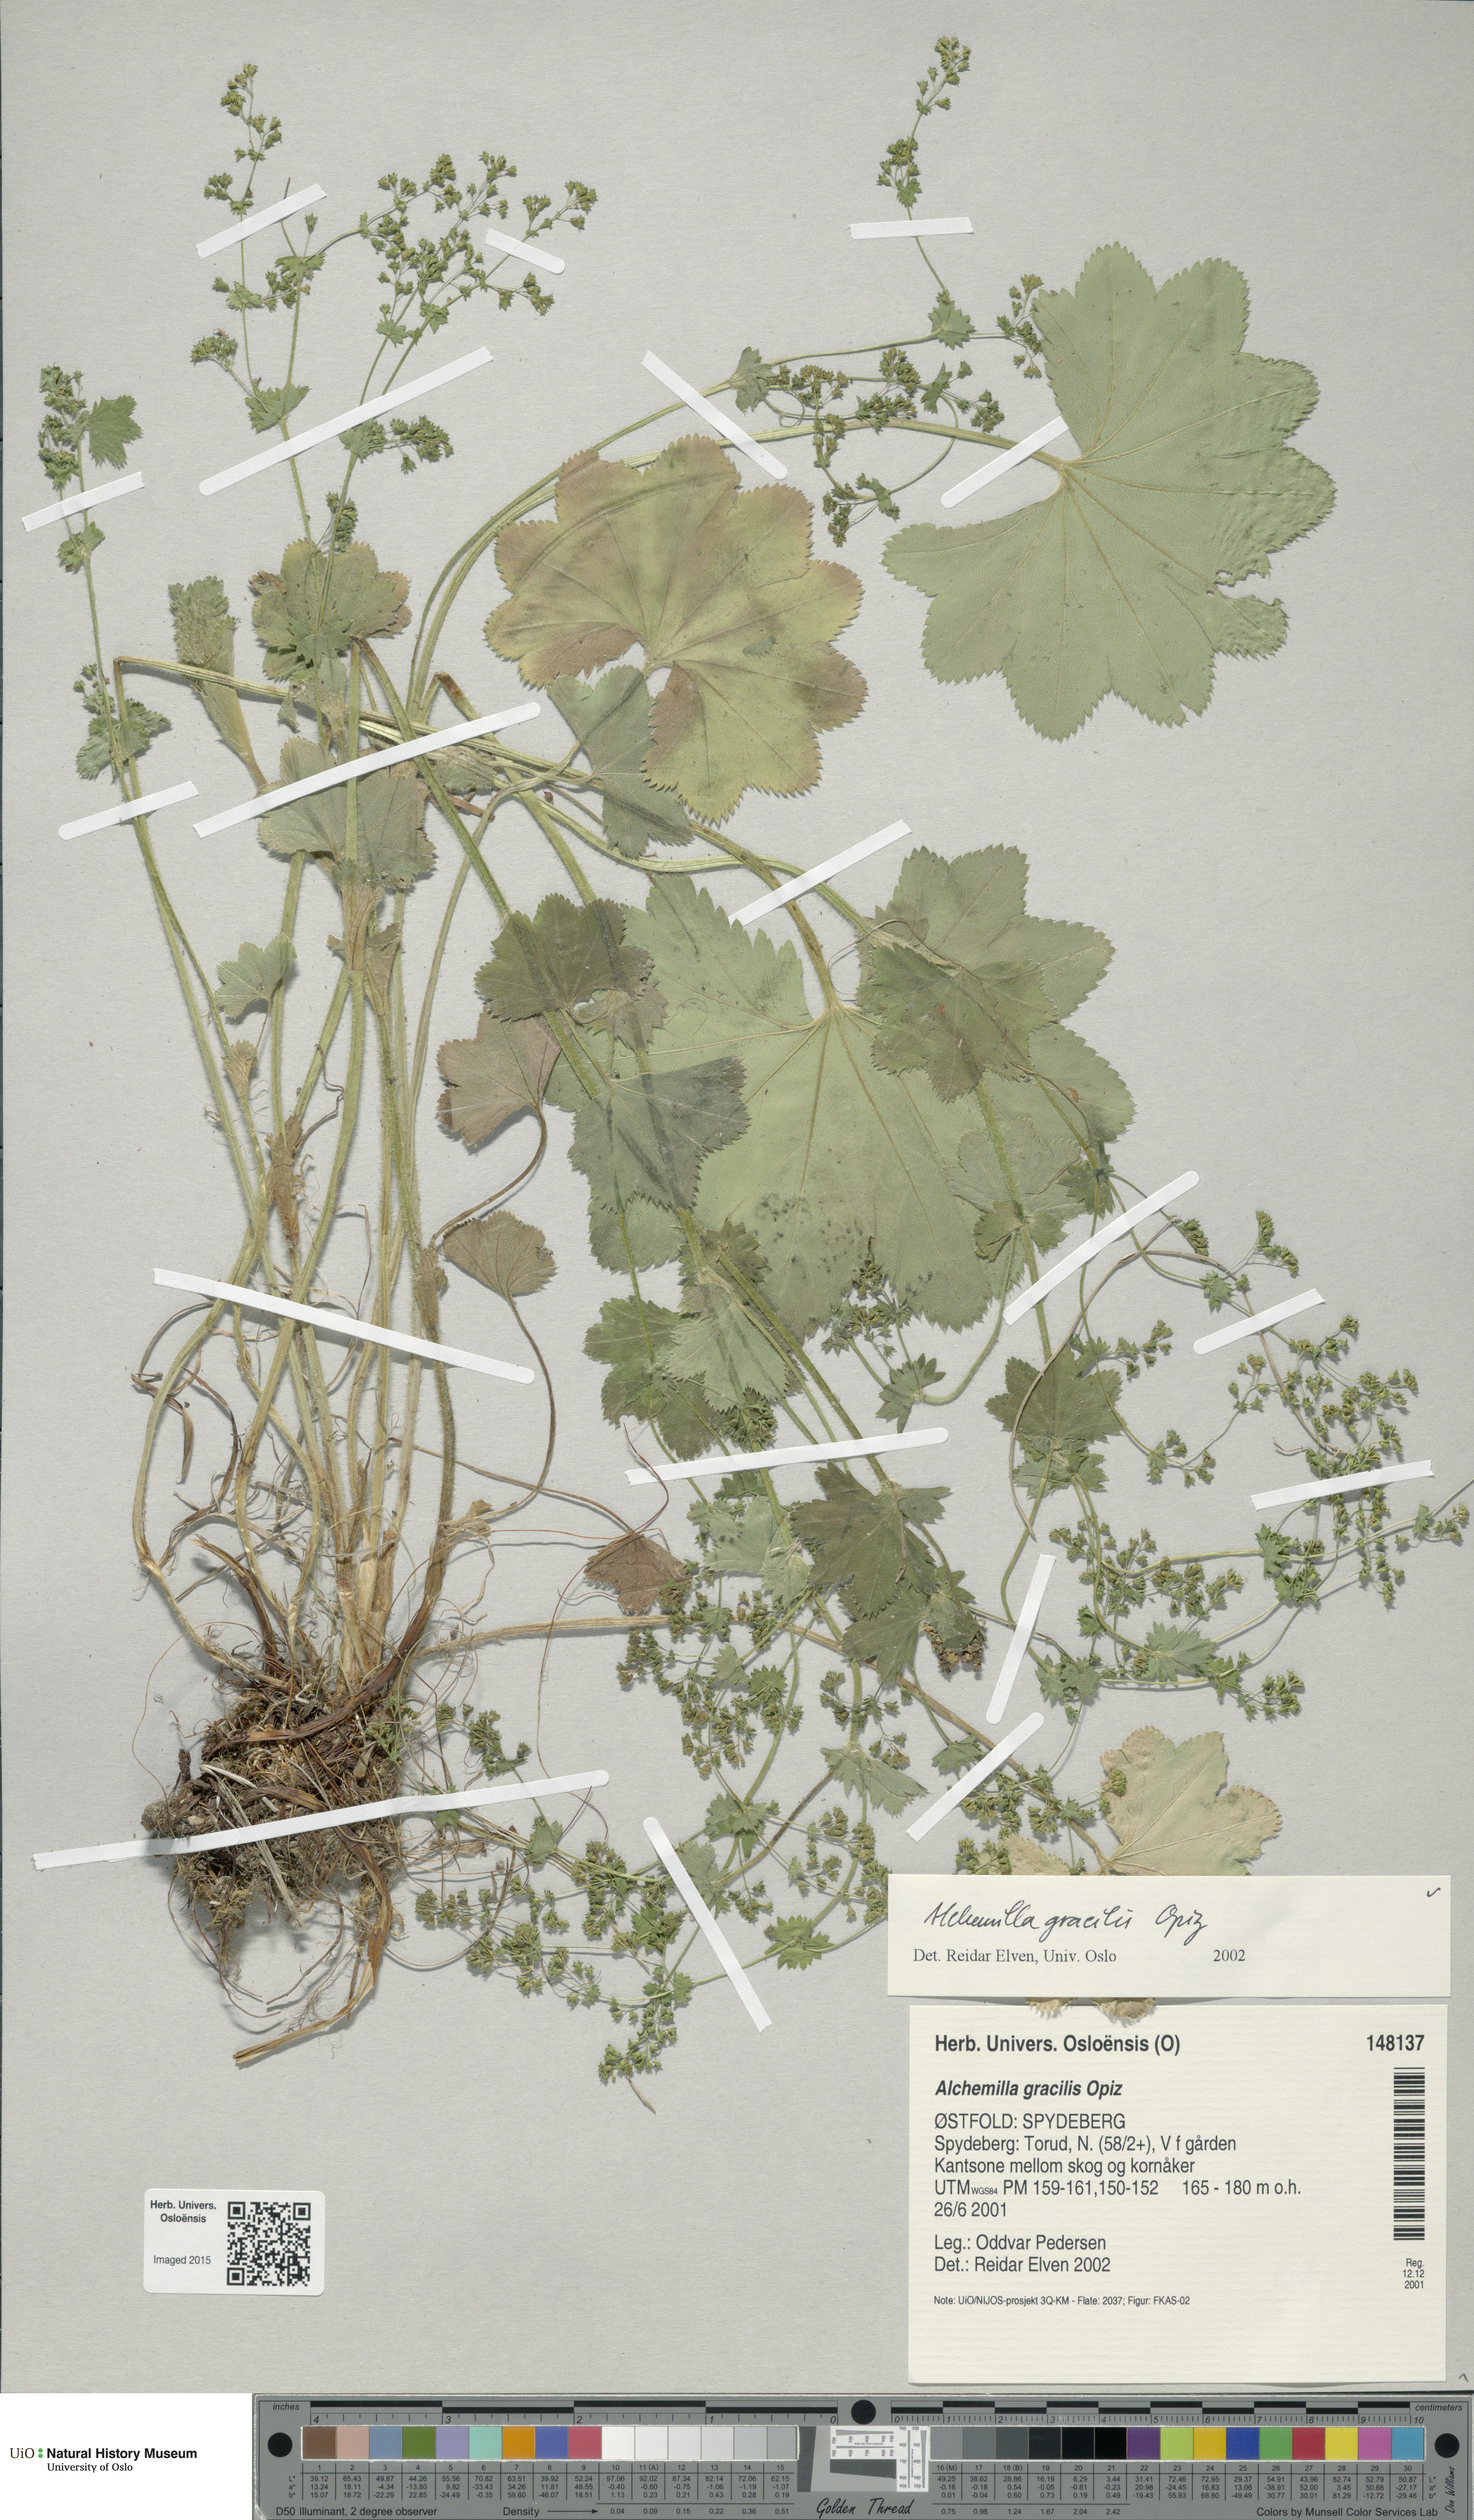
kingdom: Plantae
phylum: Tracheophyta
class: Magnoliopsida
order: Rosales
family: Rosaceae
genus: Alchemilla
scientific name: Alchemilla micans
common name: Gleaming lady's mantle
